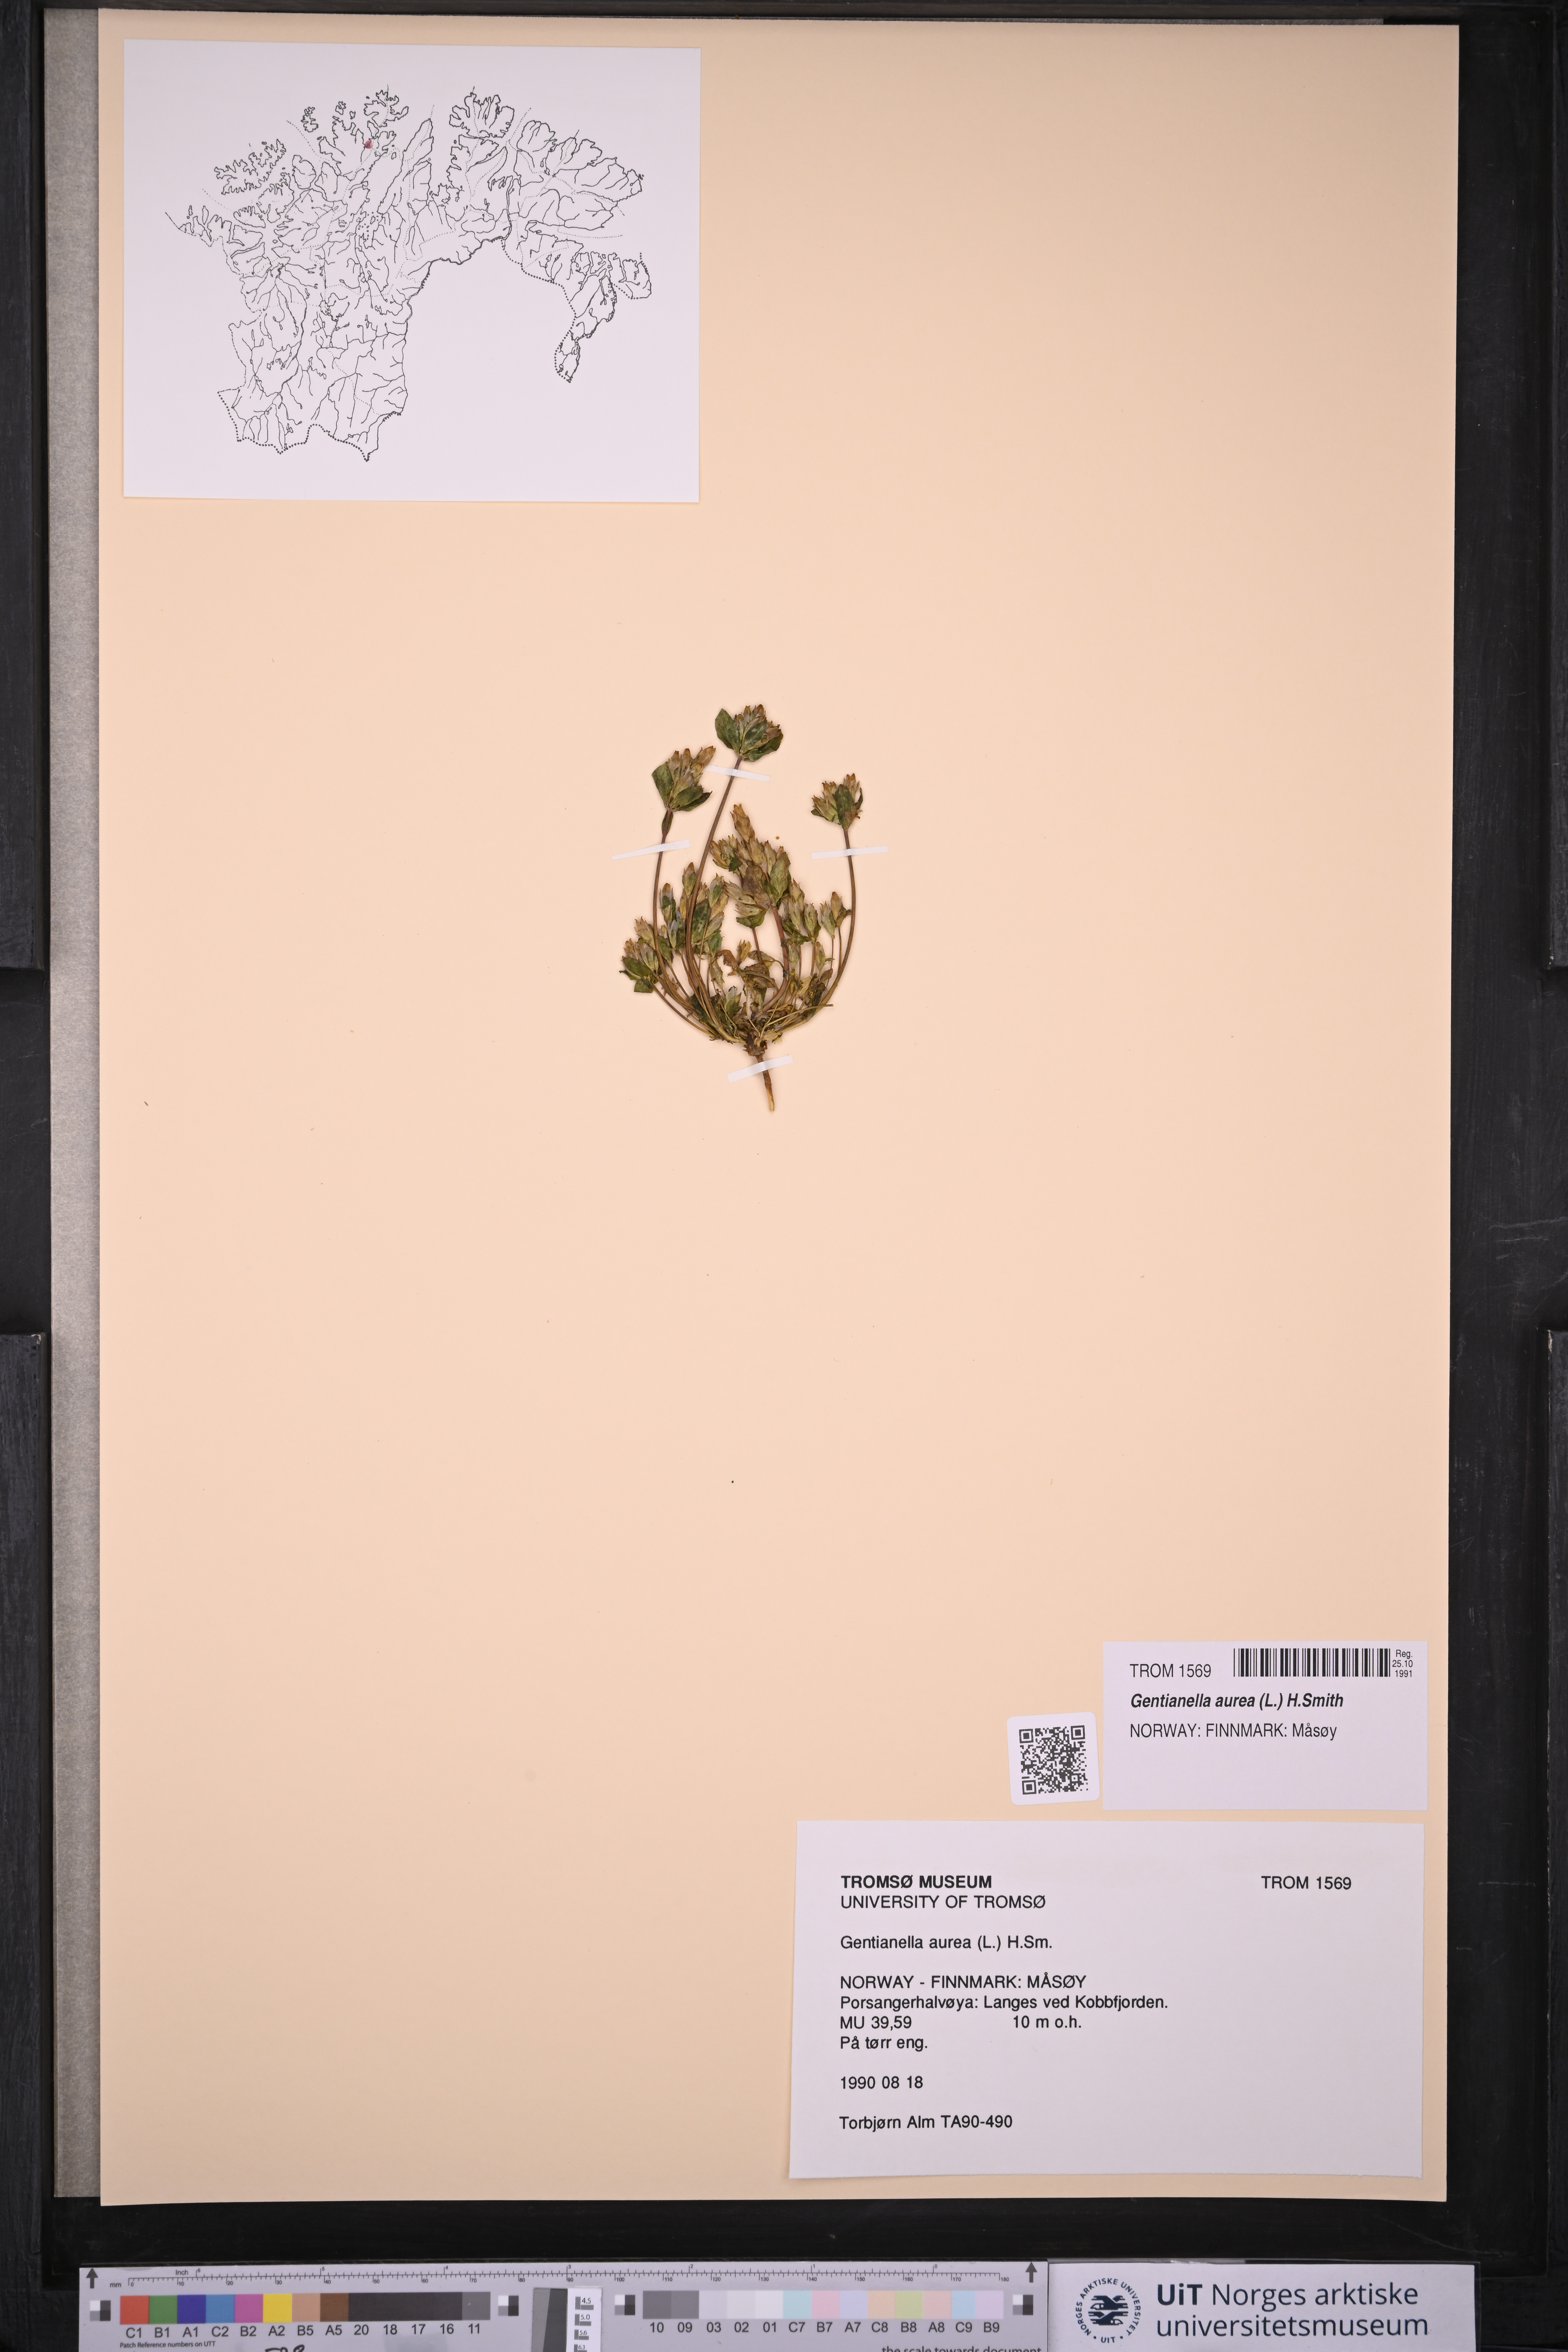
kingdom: Plantae
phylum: Tracheophyta
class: Magnoliopsida
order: Gentianales
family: Gentianaceae
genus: Gentianella
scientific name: Gentianella aurea
